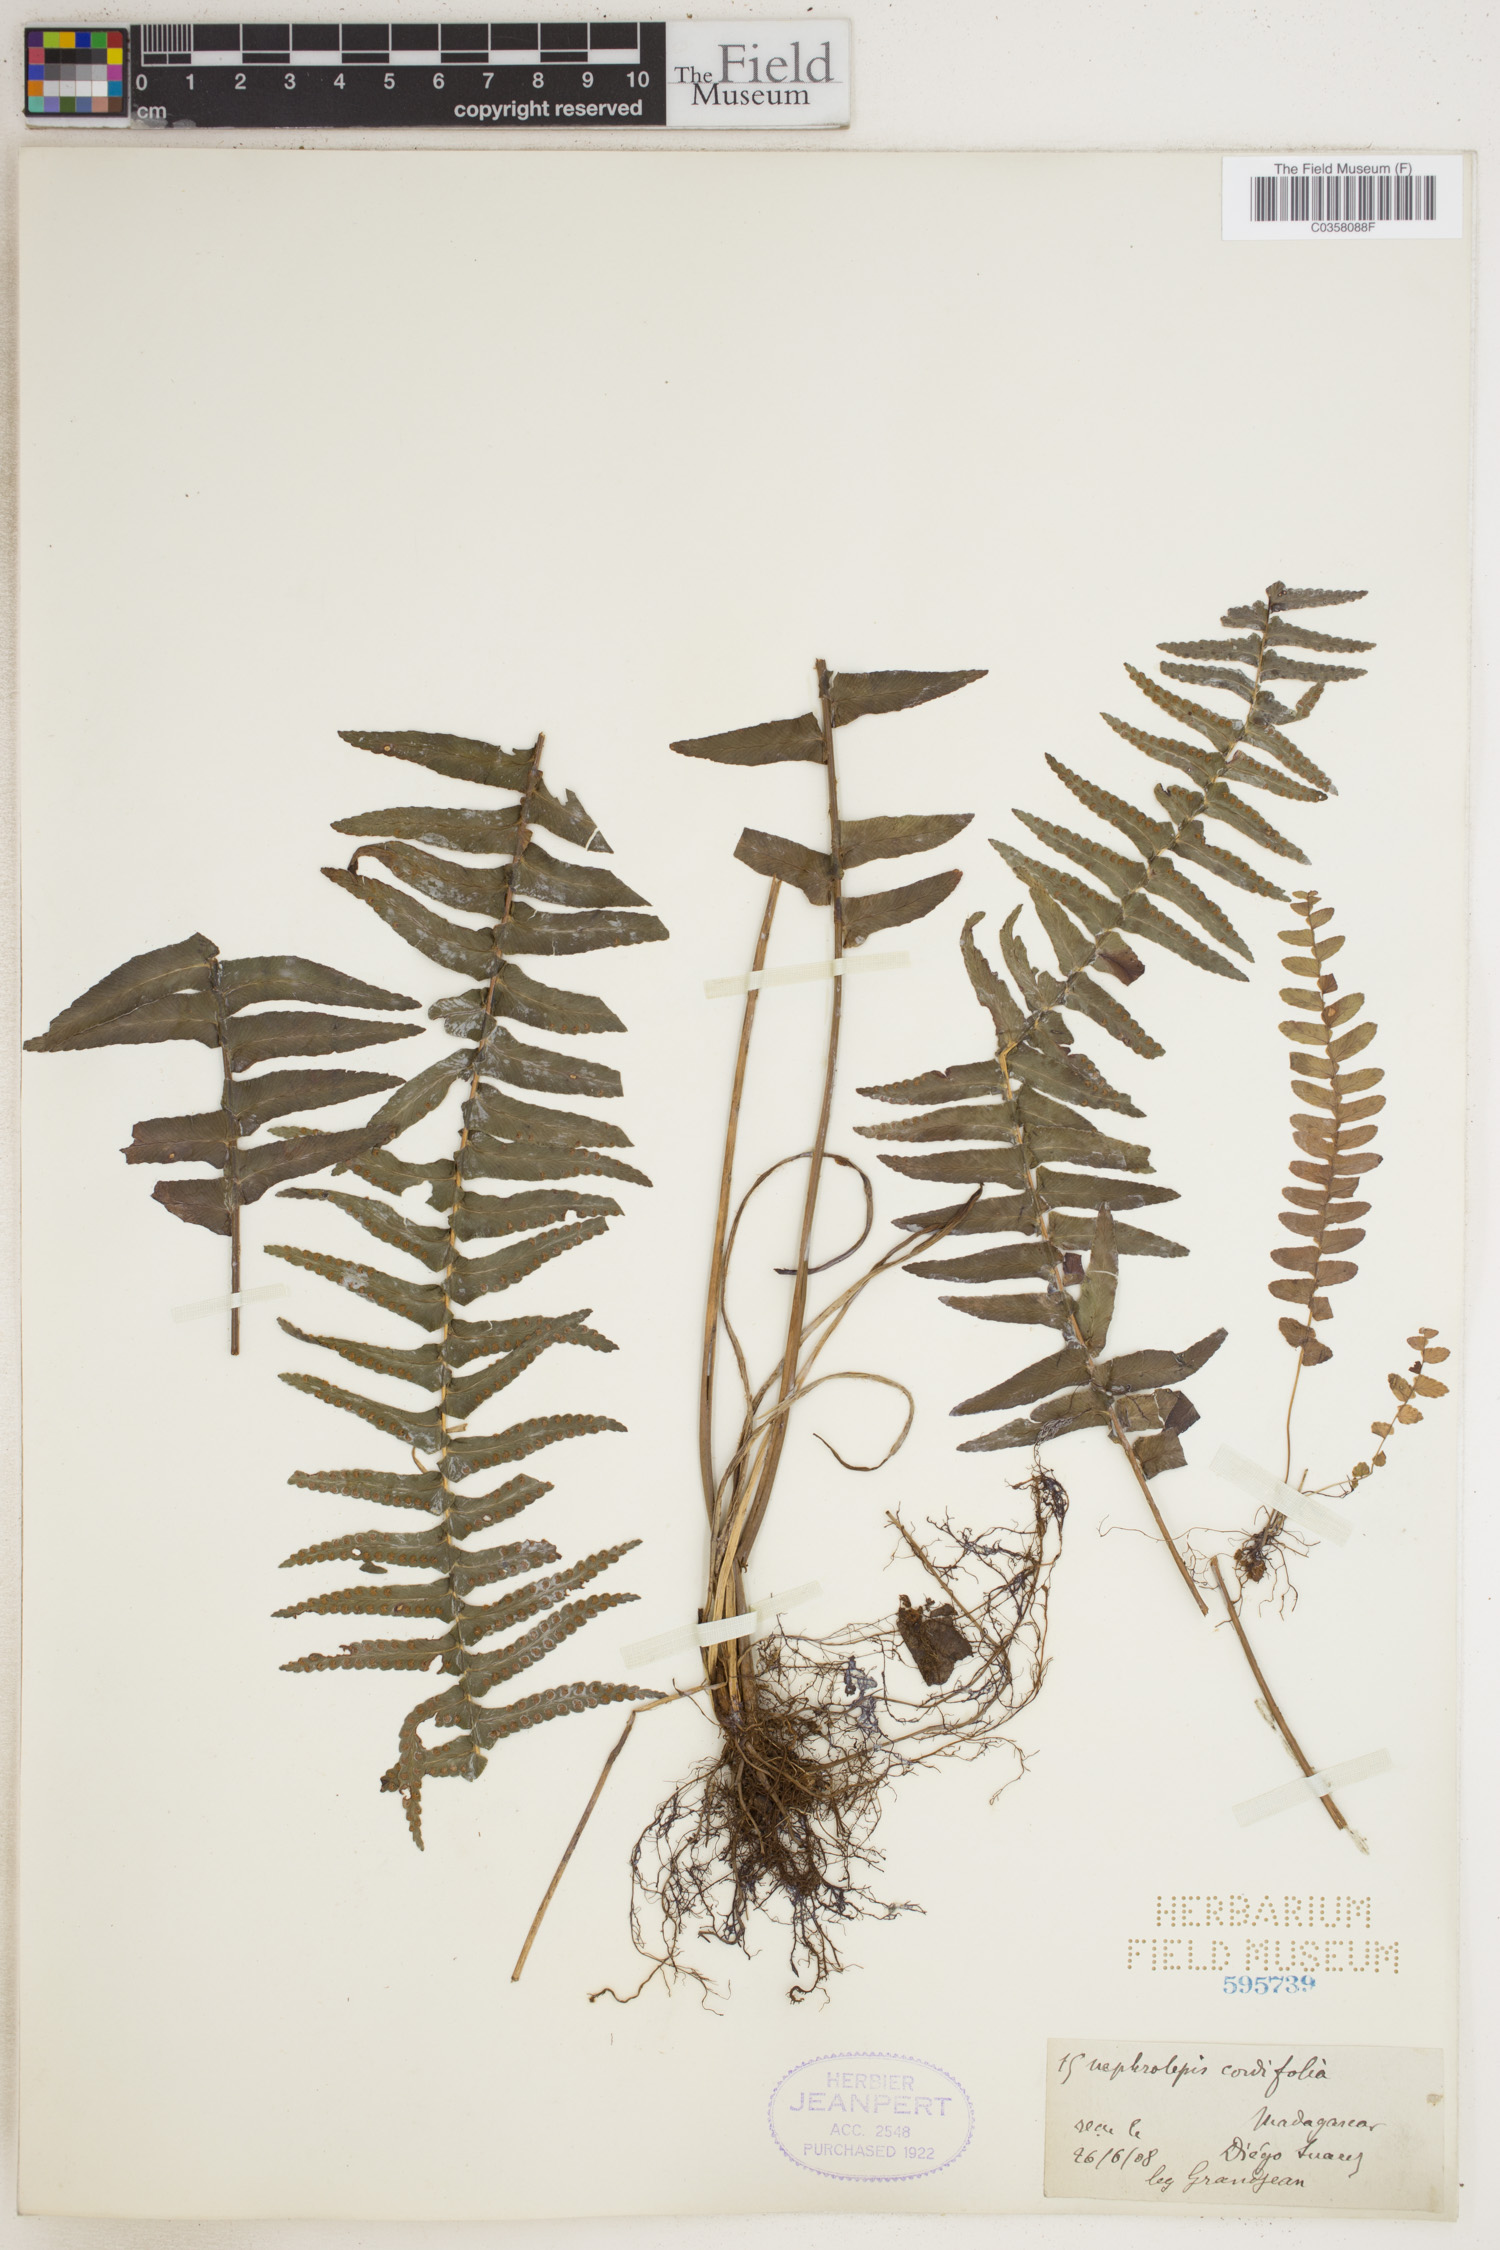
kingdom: Plantae
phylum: Tracheophyta
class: Polypodiopsida
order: Polypodiales
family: Nephrolepidaceae
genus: Nephrolepis
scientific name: Nephrolepis cordifolia
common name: Narrow swordfern
